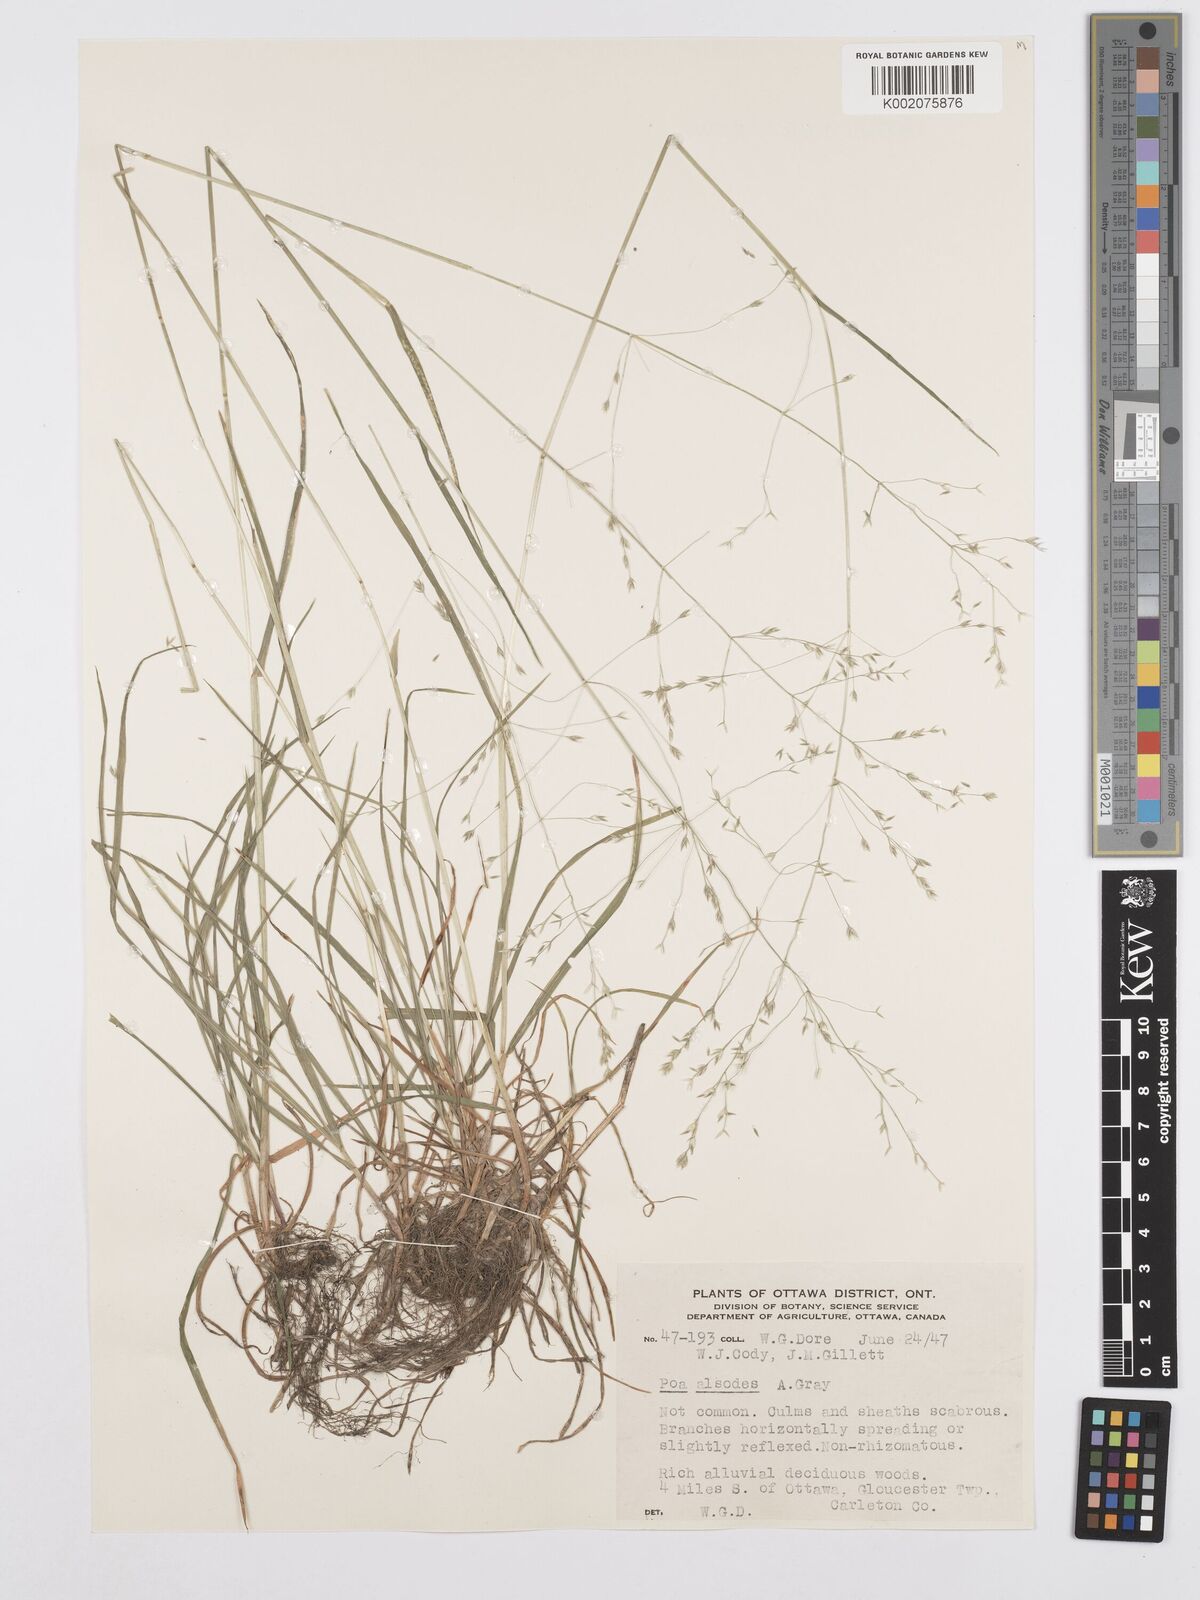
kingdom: Plantae
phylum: Tracheophyta
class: Liliopsida
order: Poales
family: Poaceae
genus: Poa
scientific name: Poa alsodes
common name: Grove bluegrass
